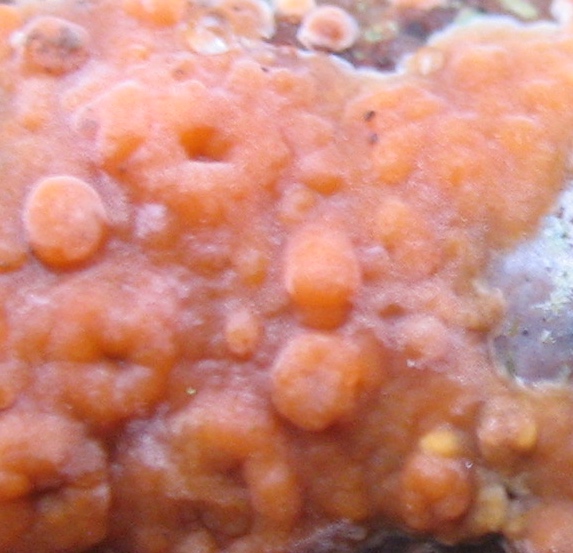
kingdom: Fungi
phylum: Basidiomycota
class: Agaricomycetes
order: Russulales
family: Peniophoraceae
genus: Peniophora
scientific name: Peniophora incarnata
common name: laksefarvet voksskind
